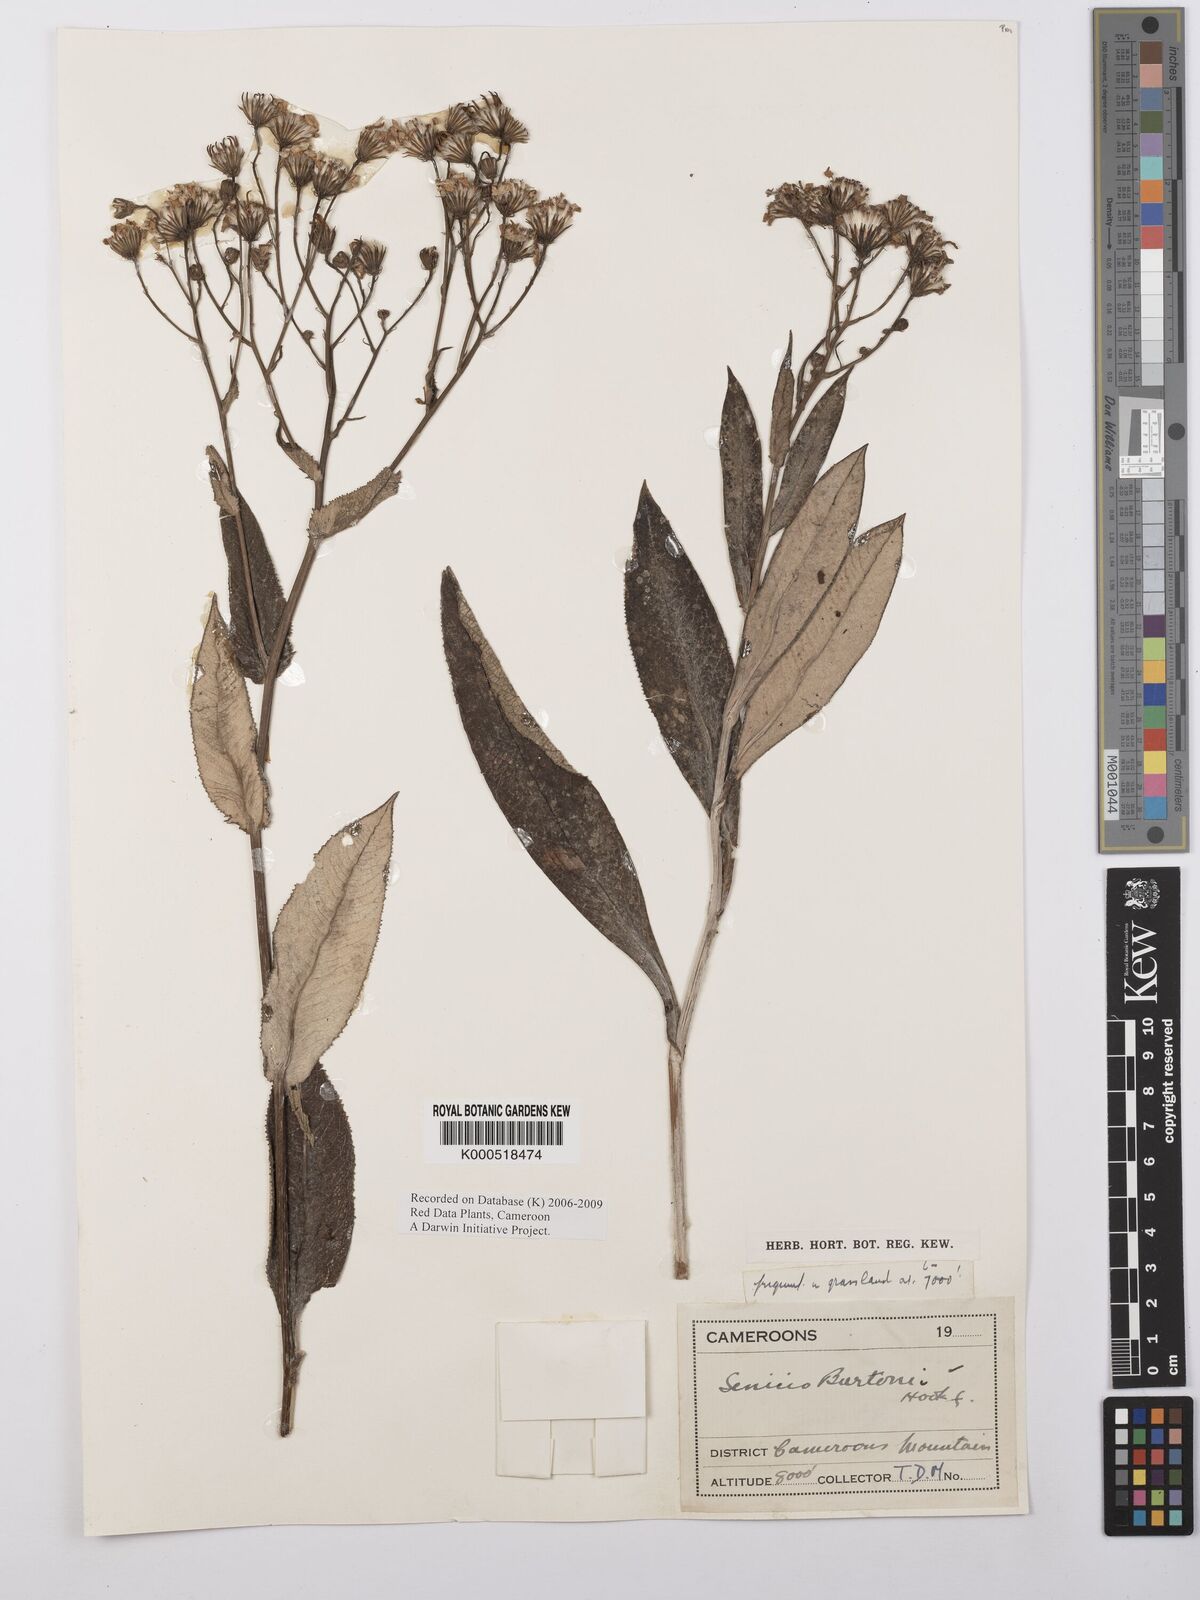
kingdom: Plantae
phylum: Tracheophyta
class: Magnoliopsida
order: Asterales
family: Asteraceae
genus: Senecio
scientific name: Senecio burtonii
